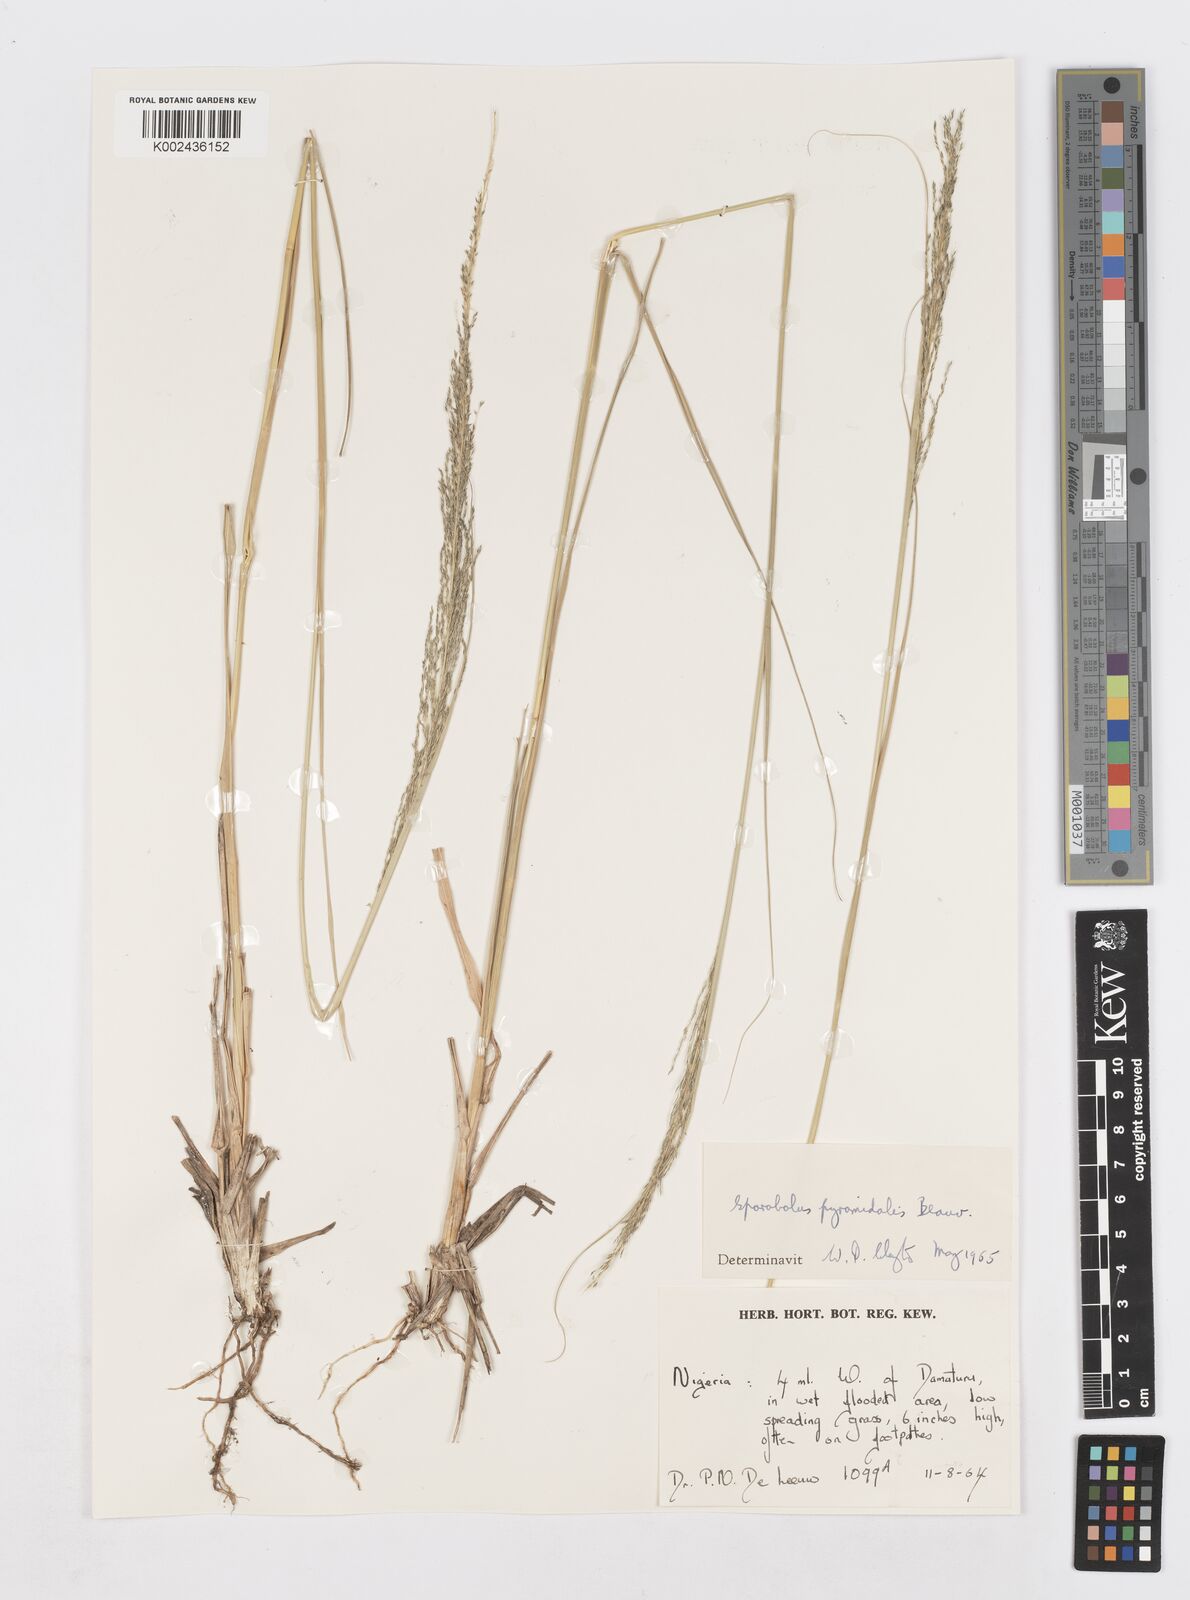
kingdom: Plantae
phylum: Tracheophyta
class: Liliopsida
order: Poales
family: Poaceae
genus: Sporobolus
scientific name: Sporobolus pyramidalis
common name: West indian dropseed
